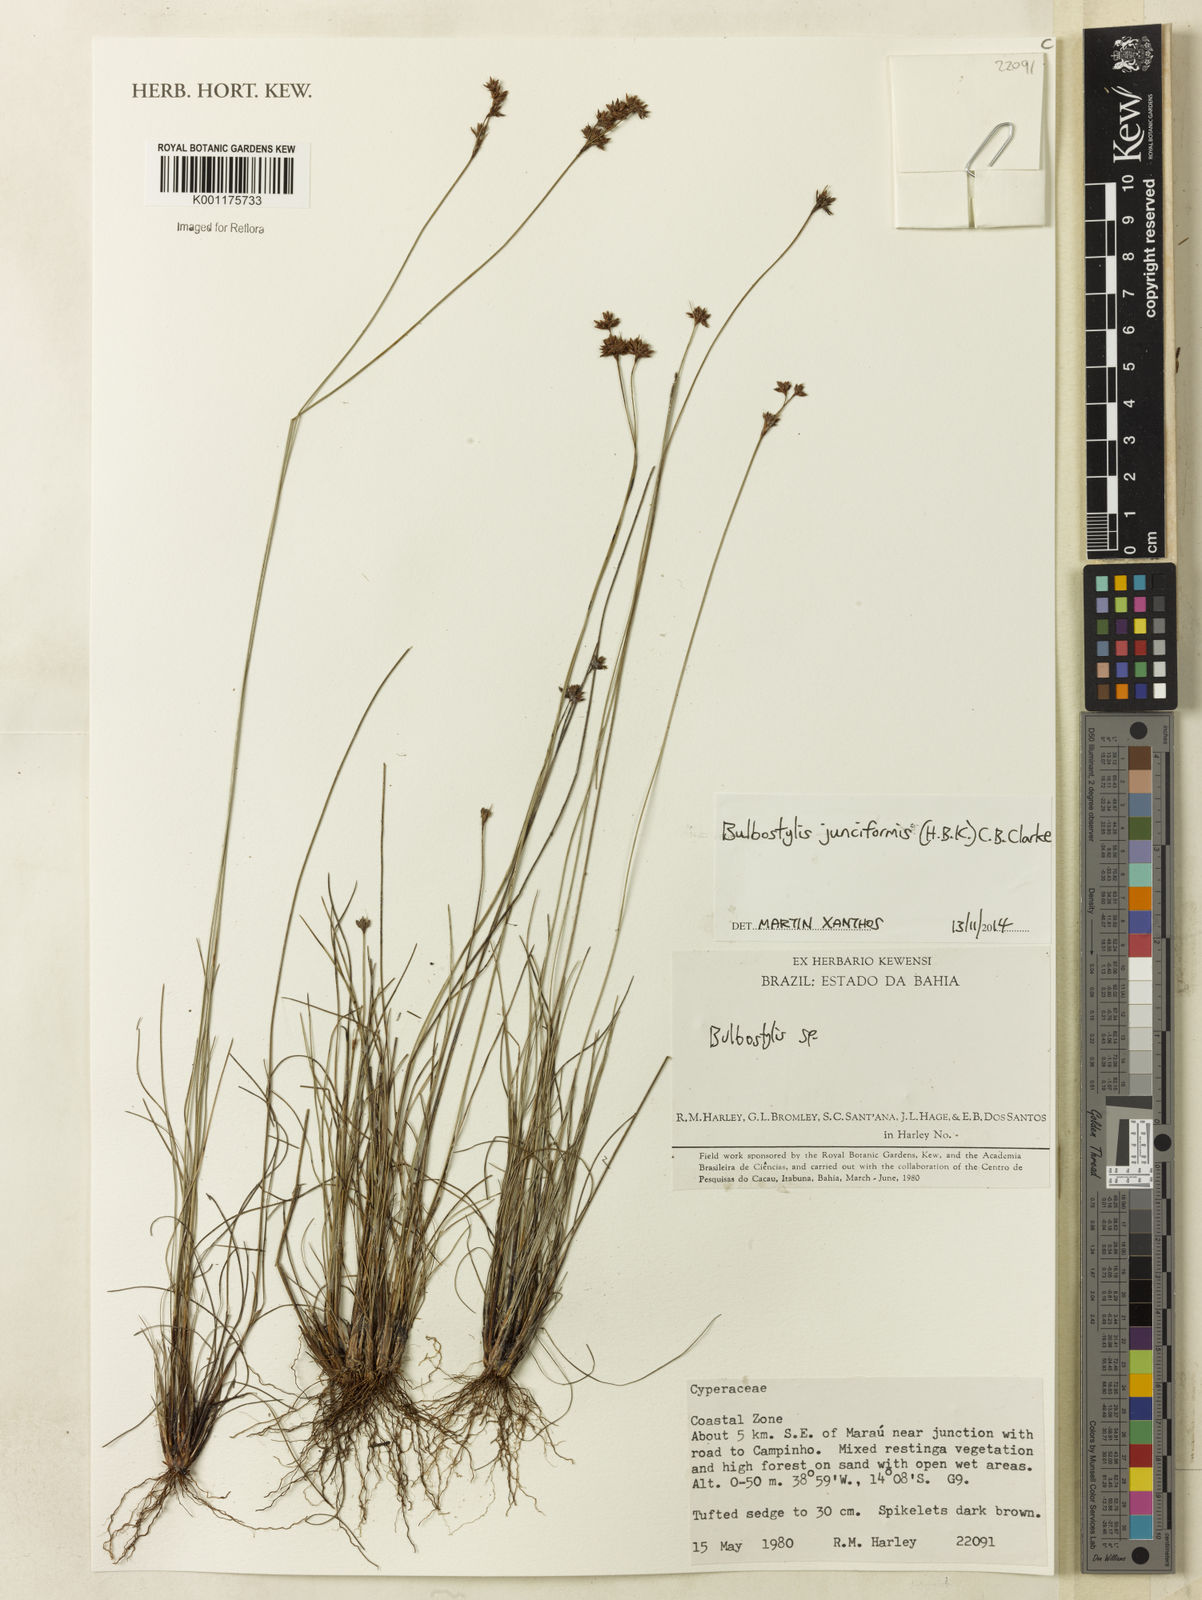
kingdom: Plantae
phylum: Tracheophyta
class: Liliopsida
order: Poales
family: Cyperaceae
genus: Bulbostylis
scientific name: Bulbostylis junciformis
